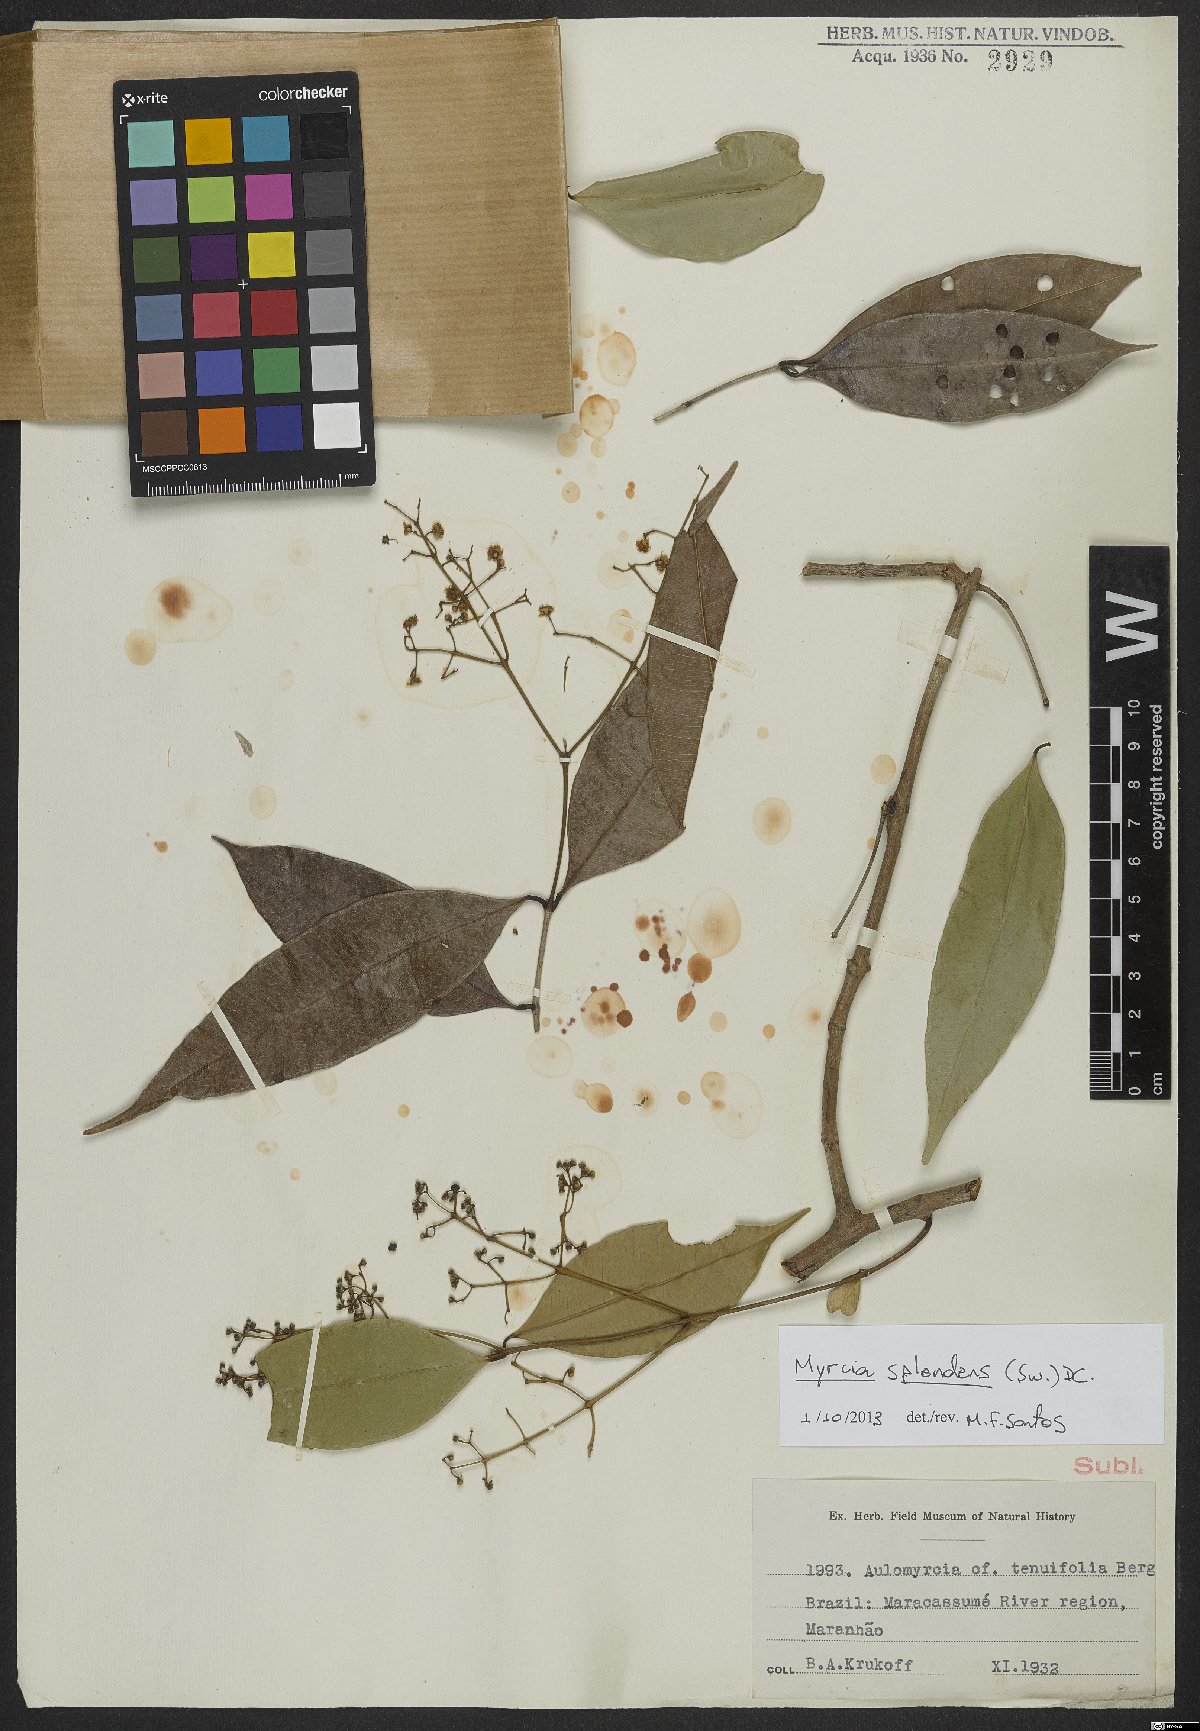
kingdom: Plantae
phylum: Tracheophyta
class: Magnoliopsida
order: Myrtales
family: Myrtaceae
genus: Myrcia
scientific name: Myrcia splendens
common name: Surinam cherry
